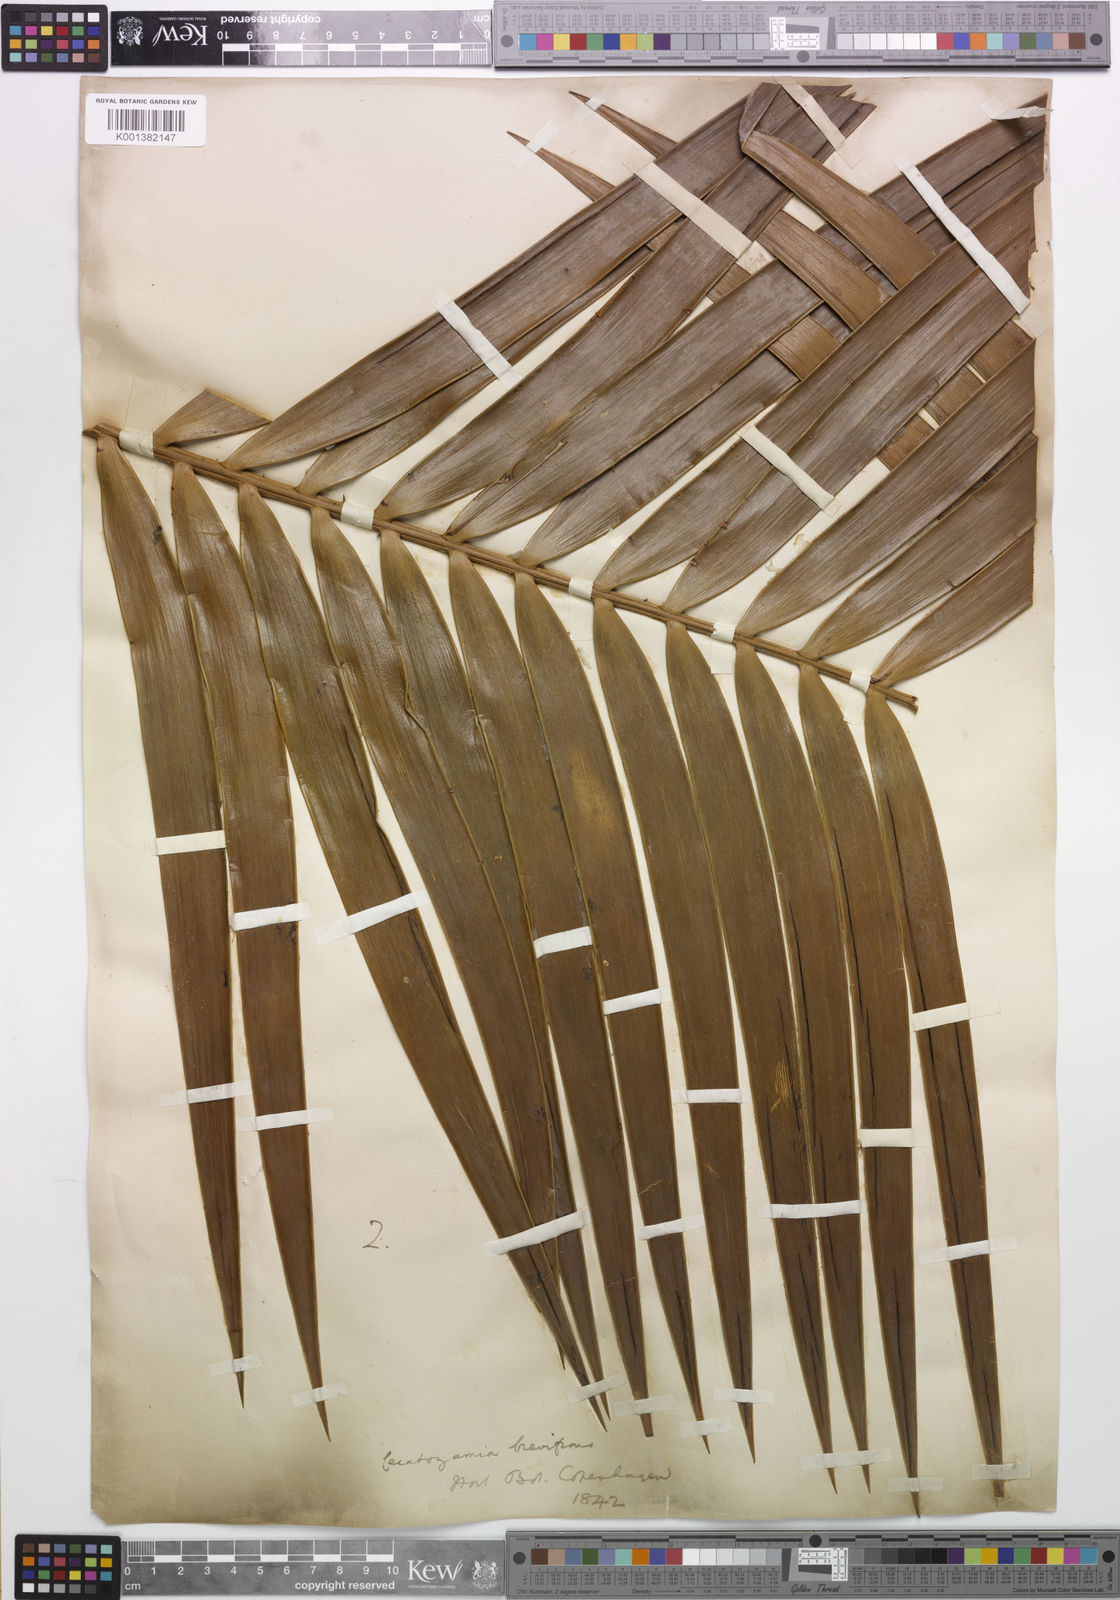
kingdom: Plantae
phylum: Tracheophyta
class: Cycadopsida
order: Cycadales
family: Zamiaceae
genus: Ceratozamia
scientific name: Ceratozamia mexicana
